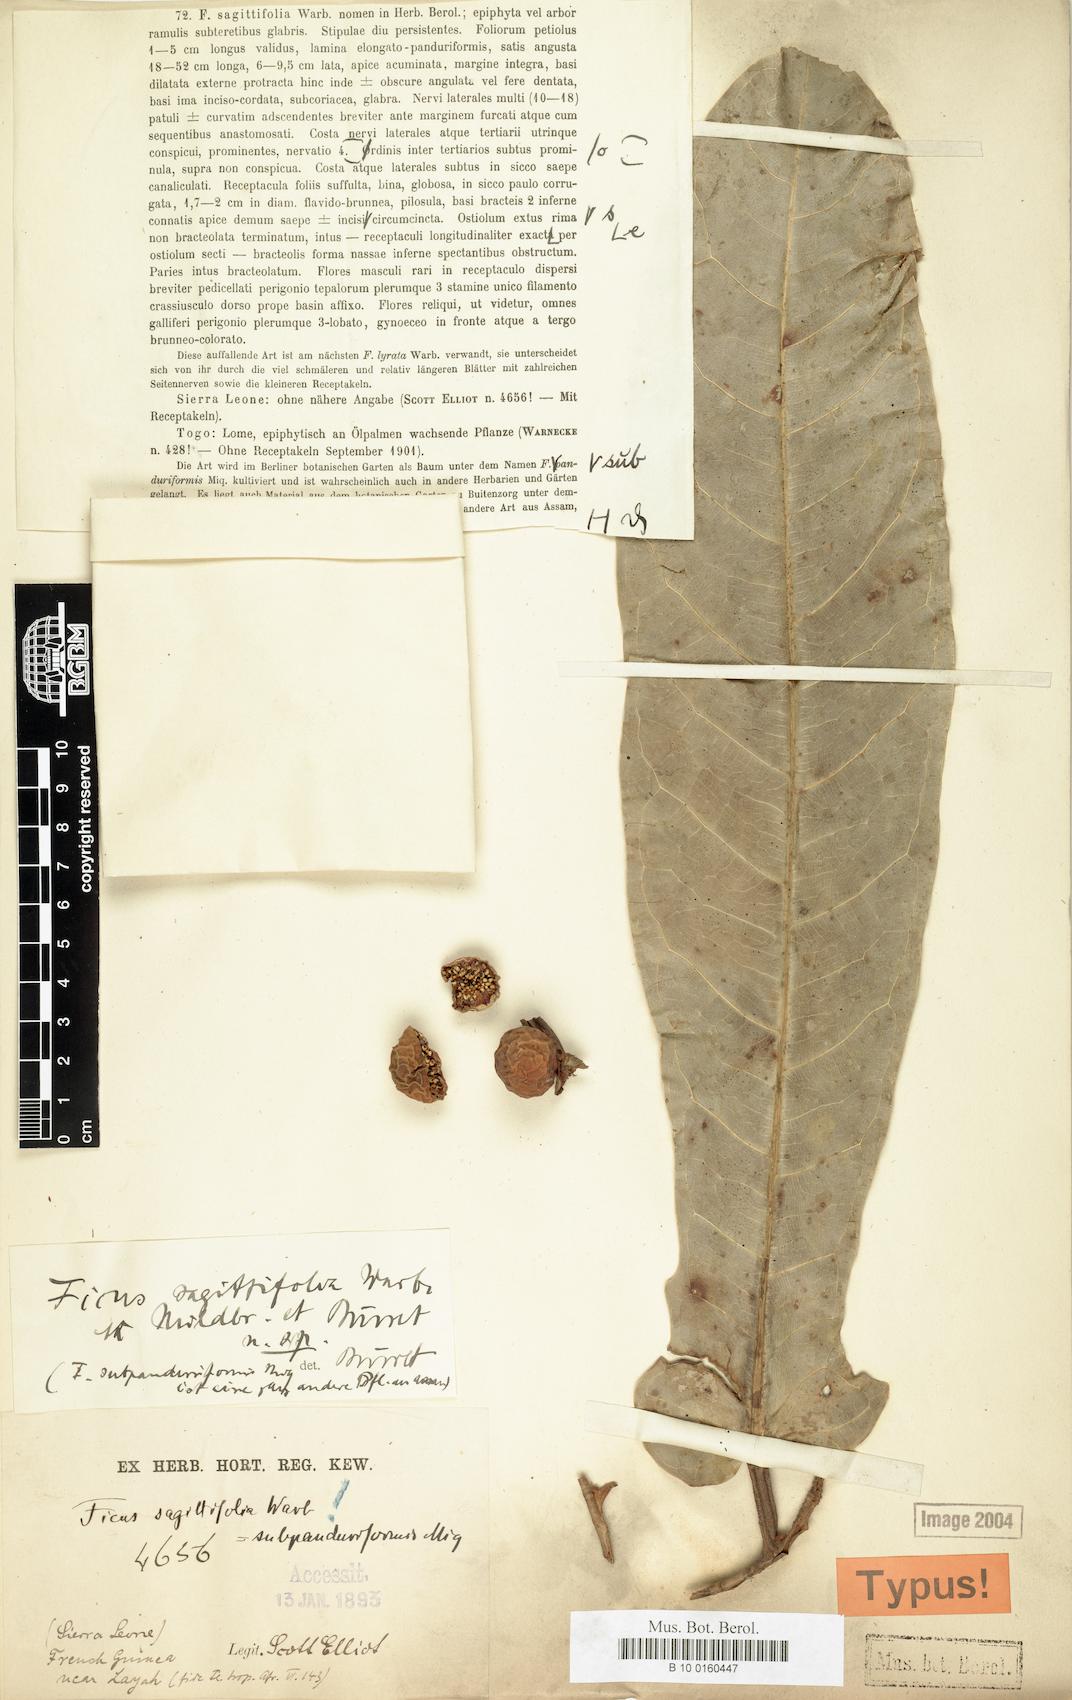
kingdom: Plantae
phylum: Tracheophyta
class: Magnoliopsida
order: Rosales
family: Moraceae
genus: Ficus
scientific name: Ficus sagittifolia
